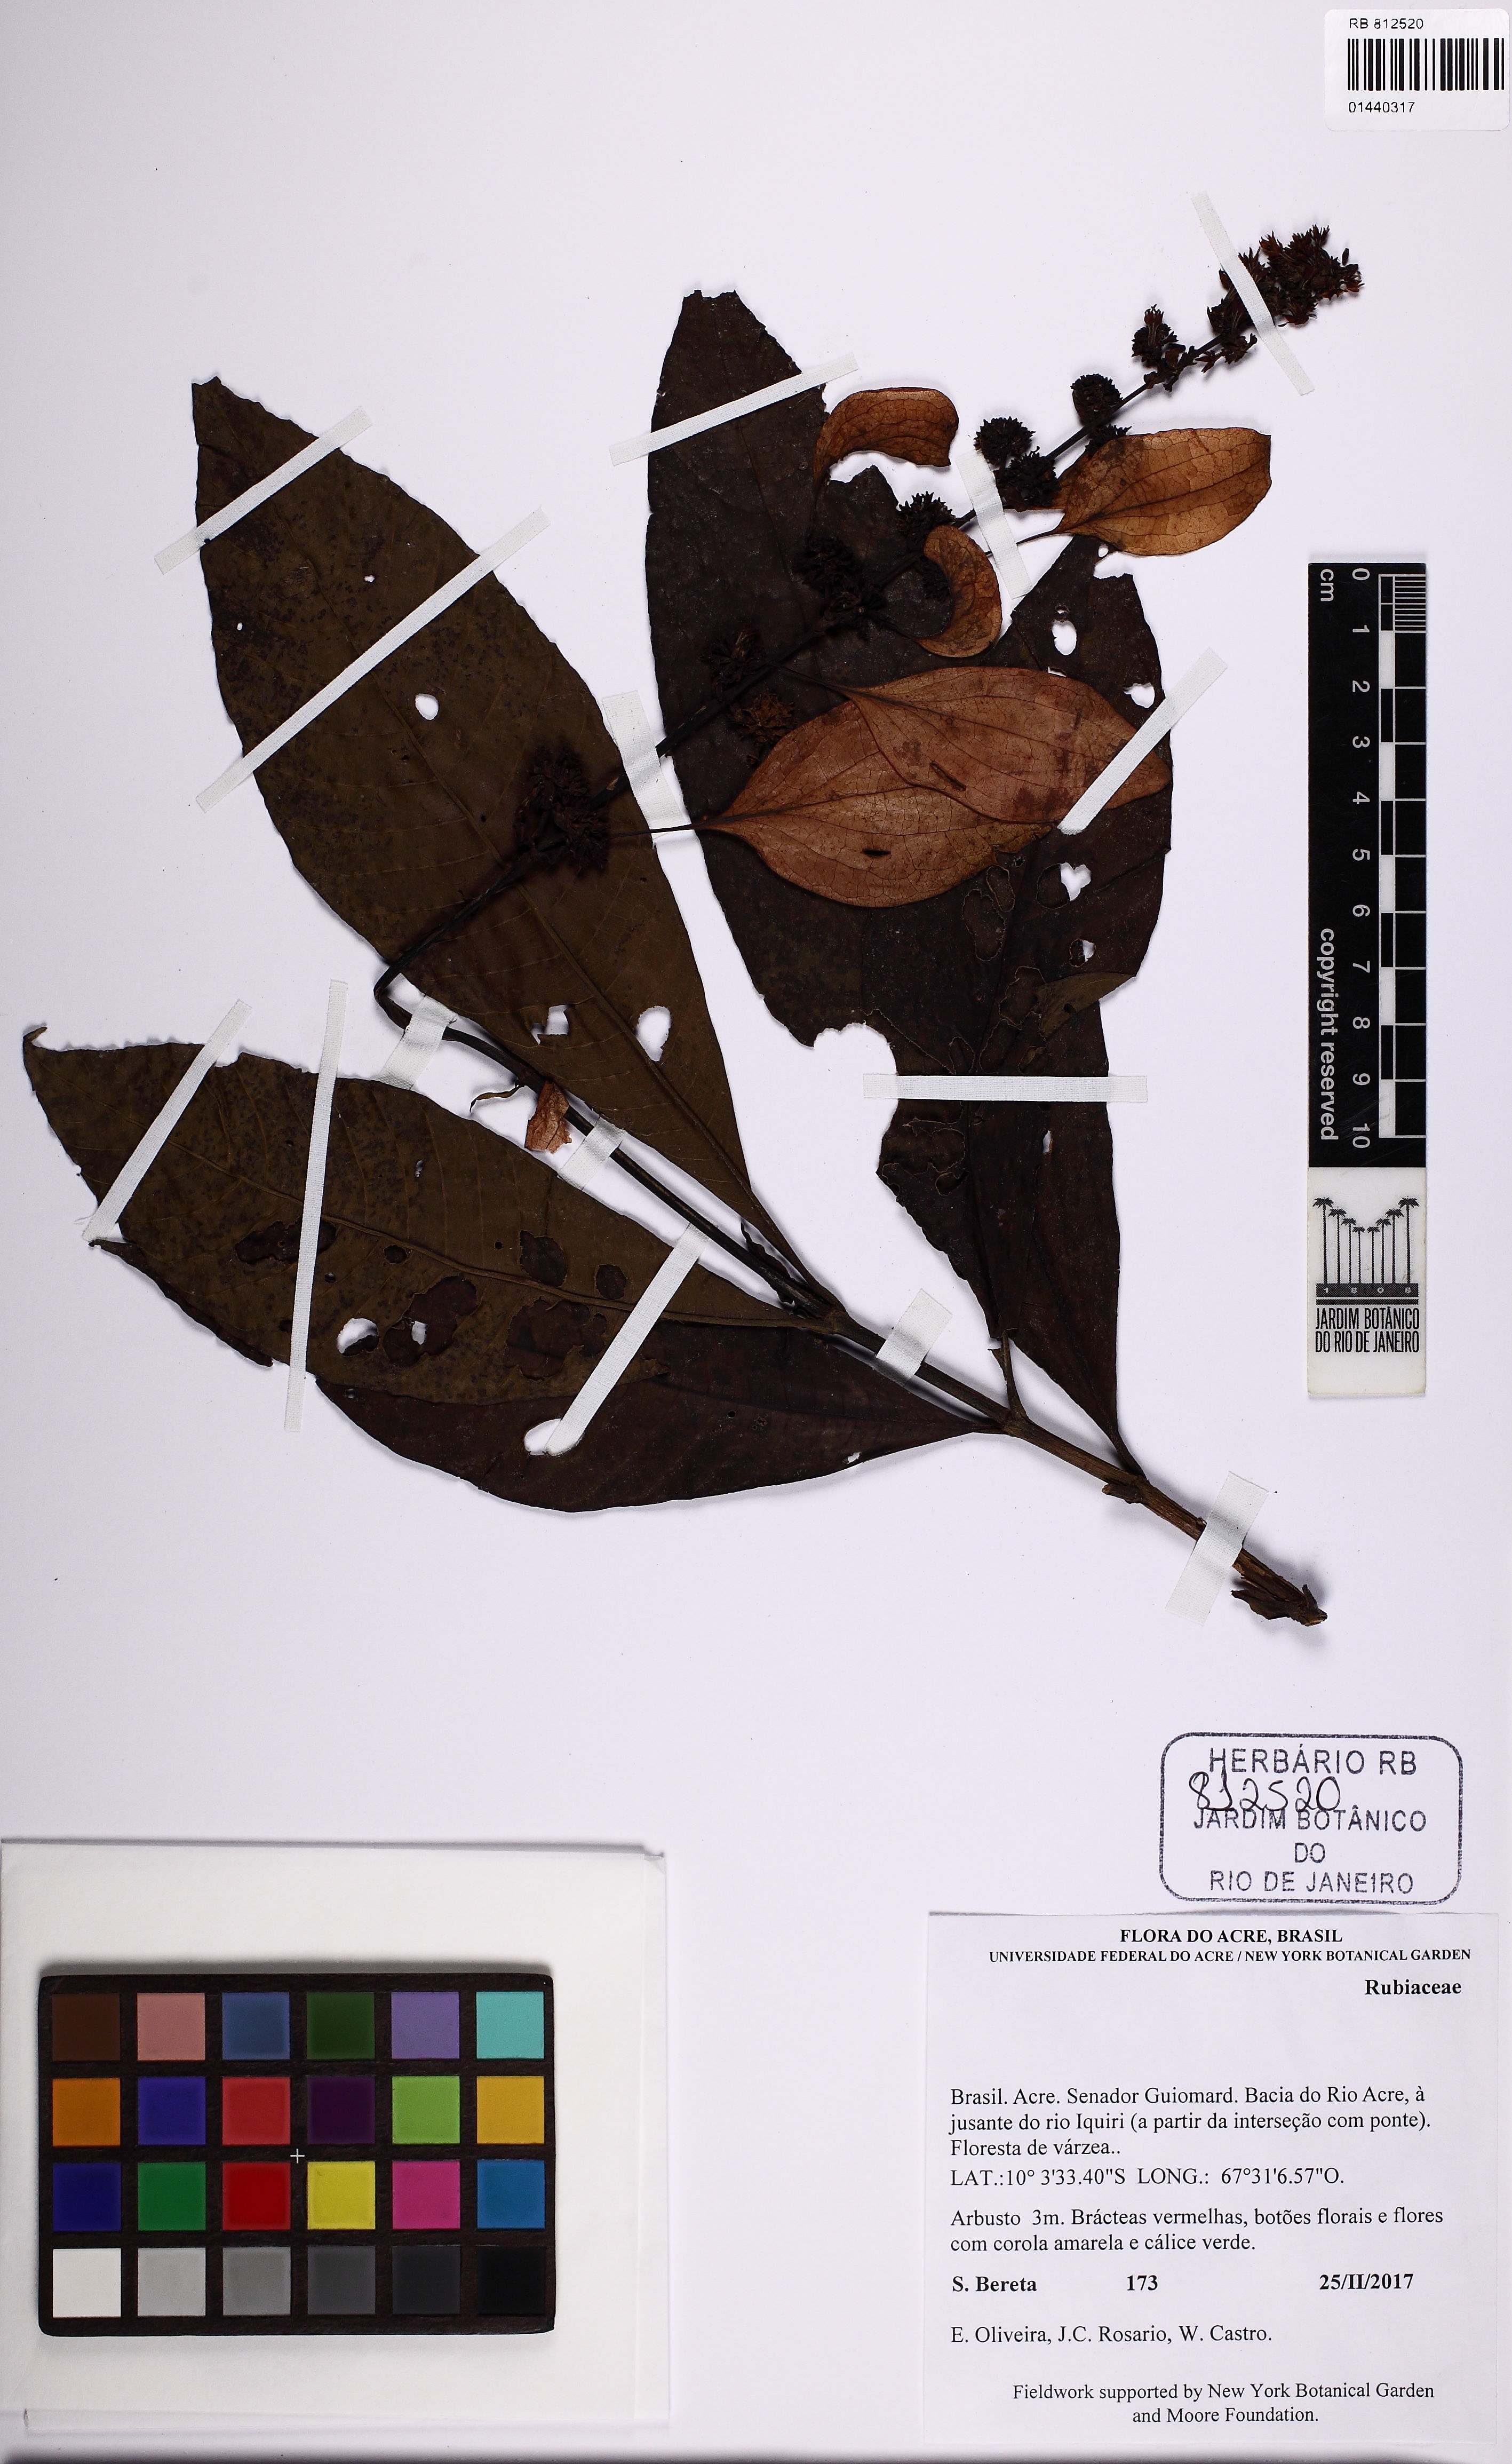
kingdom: Plantae
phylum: Tracheophyta
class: Magnoliopsida
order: Gentianales
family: Rubiaceae
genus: Warszewiczia
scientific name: Warszewiczia coccinea
